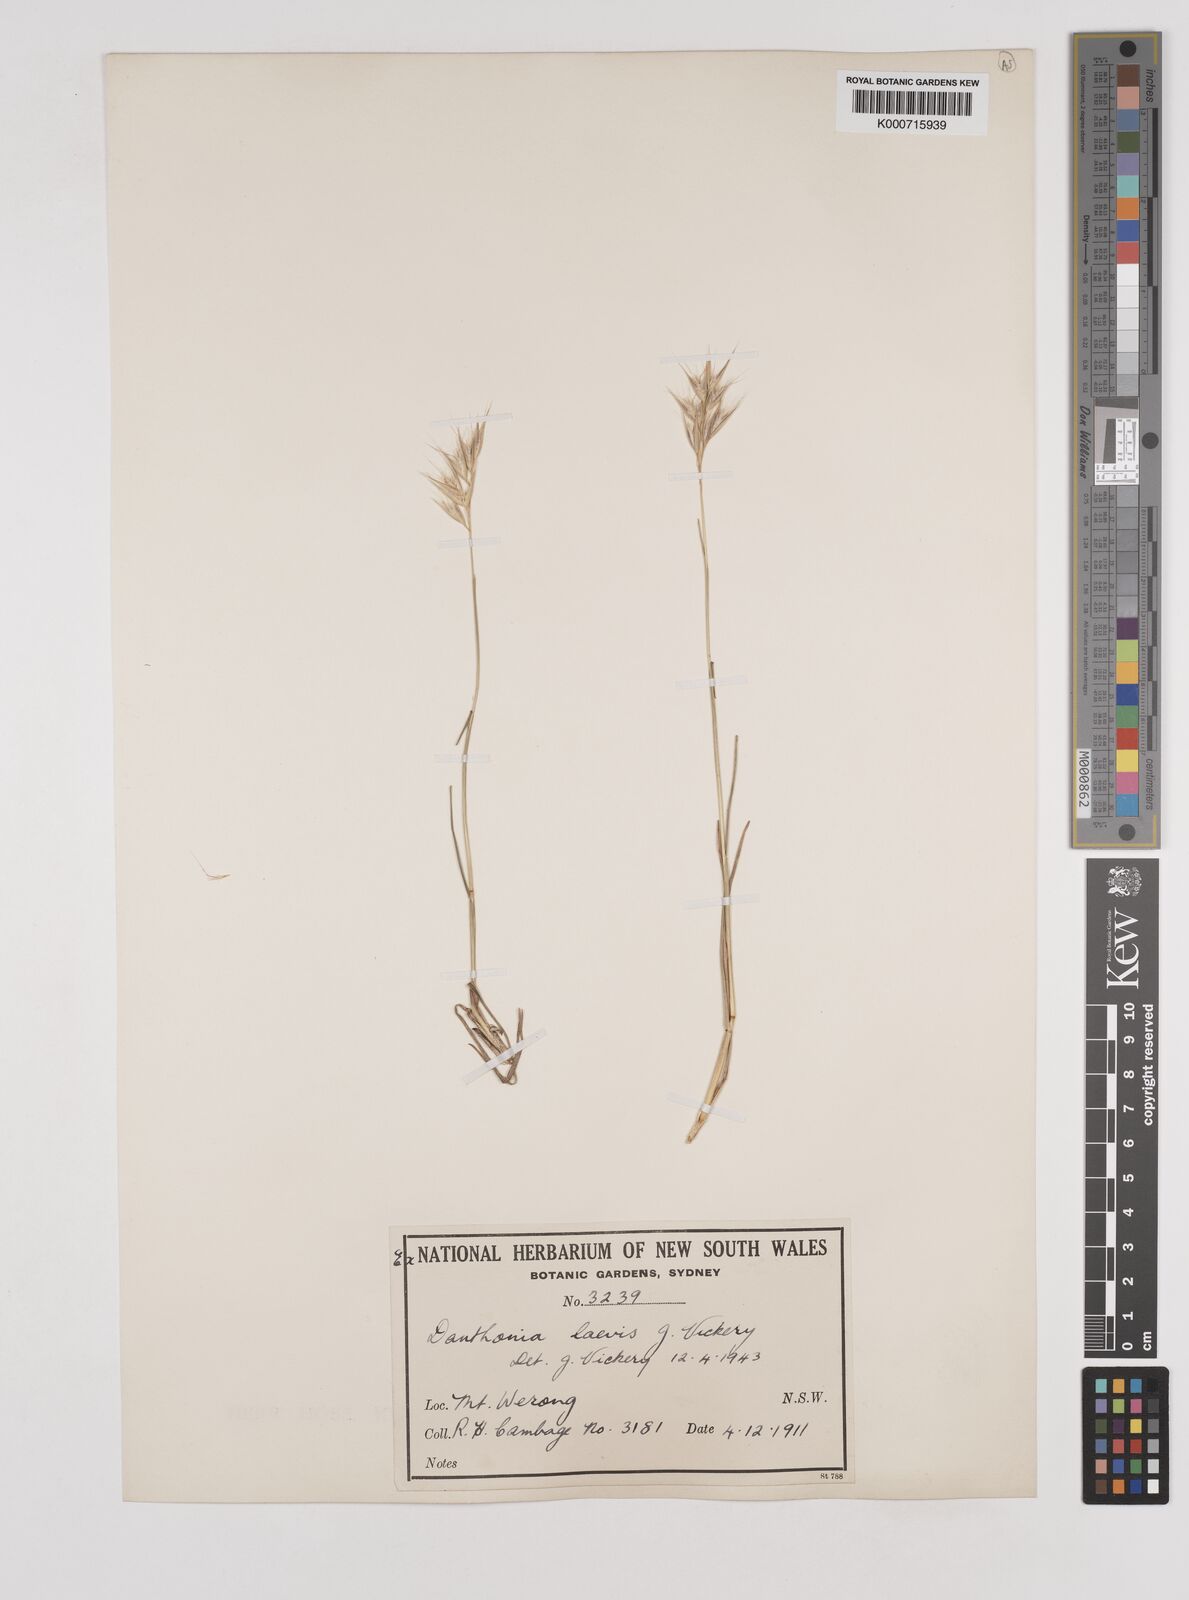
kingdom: Plantae
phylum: Tracheophyta
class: Liliopsida
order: Poales
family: Poaceae
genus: Rytidosperma
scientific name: Rytidosperma laeve
